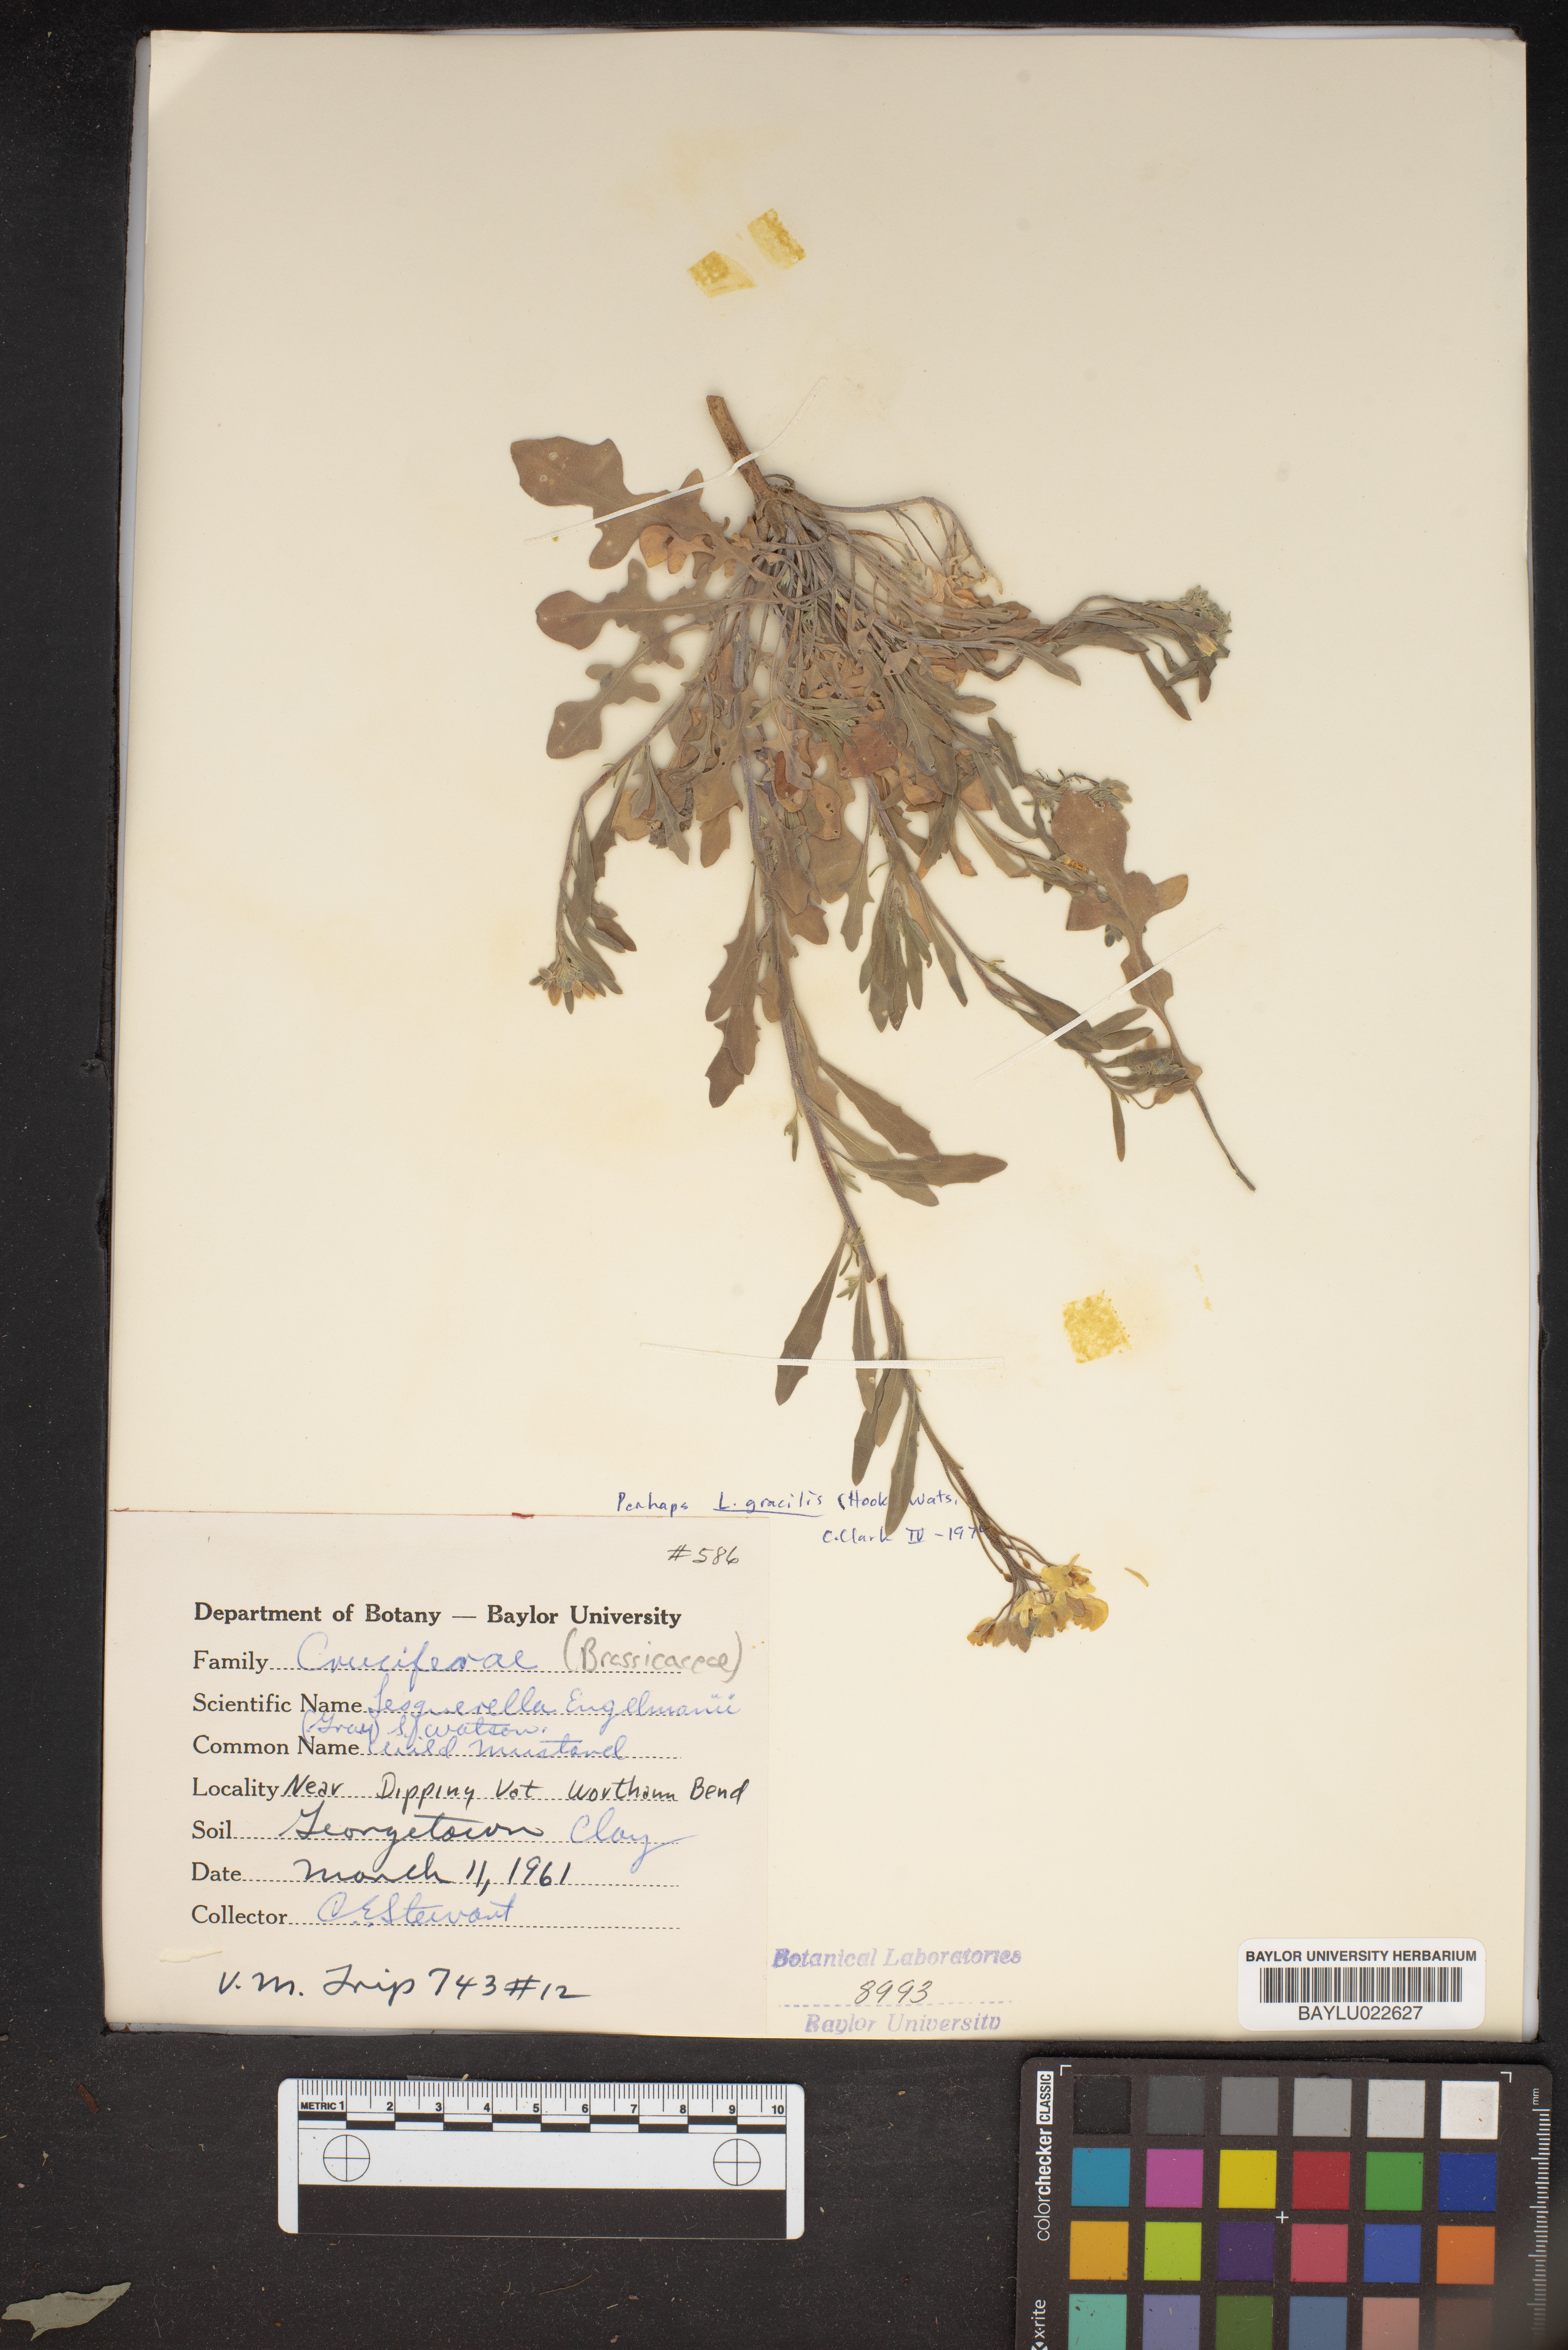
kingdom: Plantae
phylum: Tracheophyta
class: Magnoliopsida
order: Brassicales
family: Brassicaceae
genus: Physaria
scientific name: Physaria engelmannii
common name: Engelmann's bladderpod
